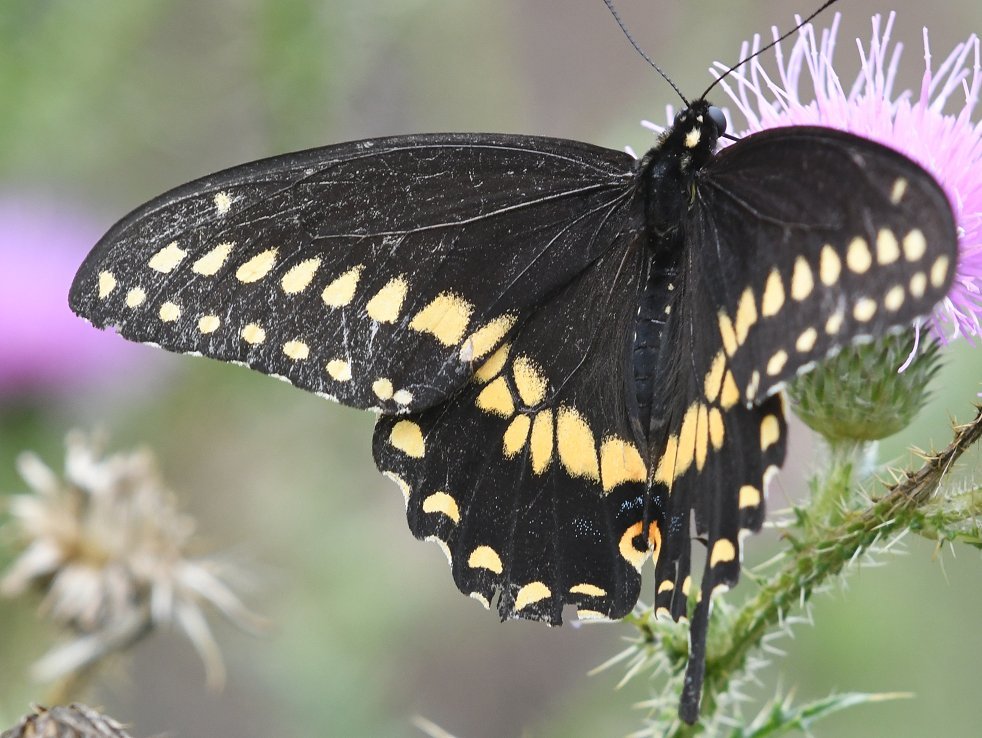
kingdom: Animalia
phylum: Arthropoda
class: Insecta
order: Lepidoptera
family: Papilionidae
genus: Papilio
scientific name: Papilio polyxenes
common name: Black Swallowtail
